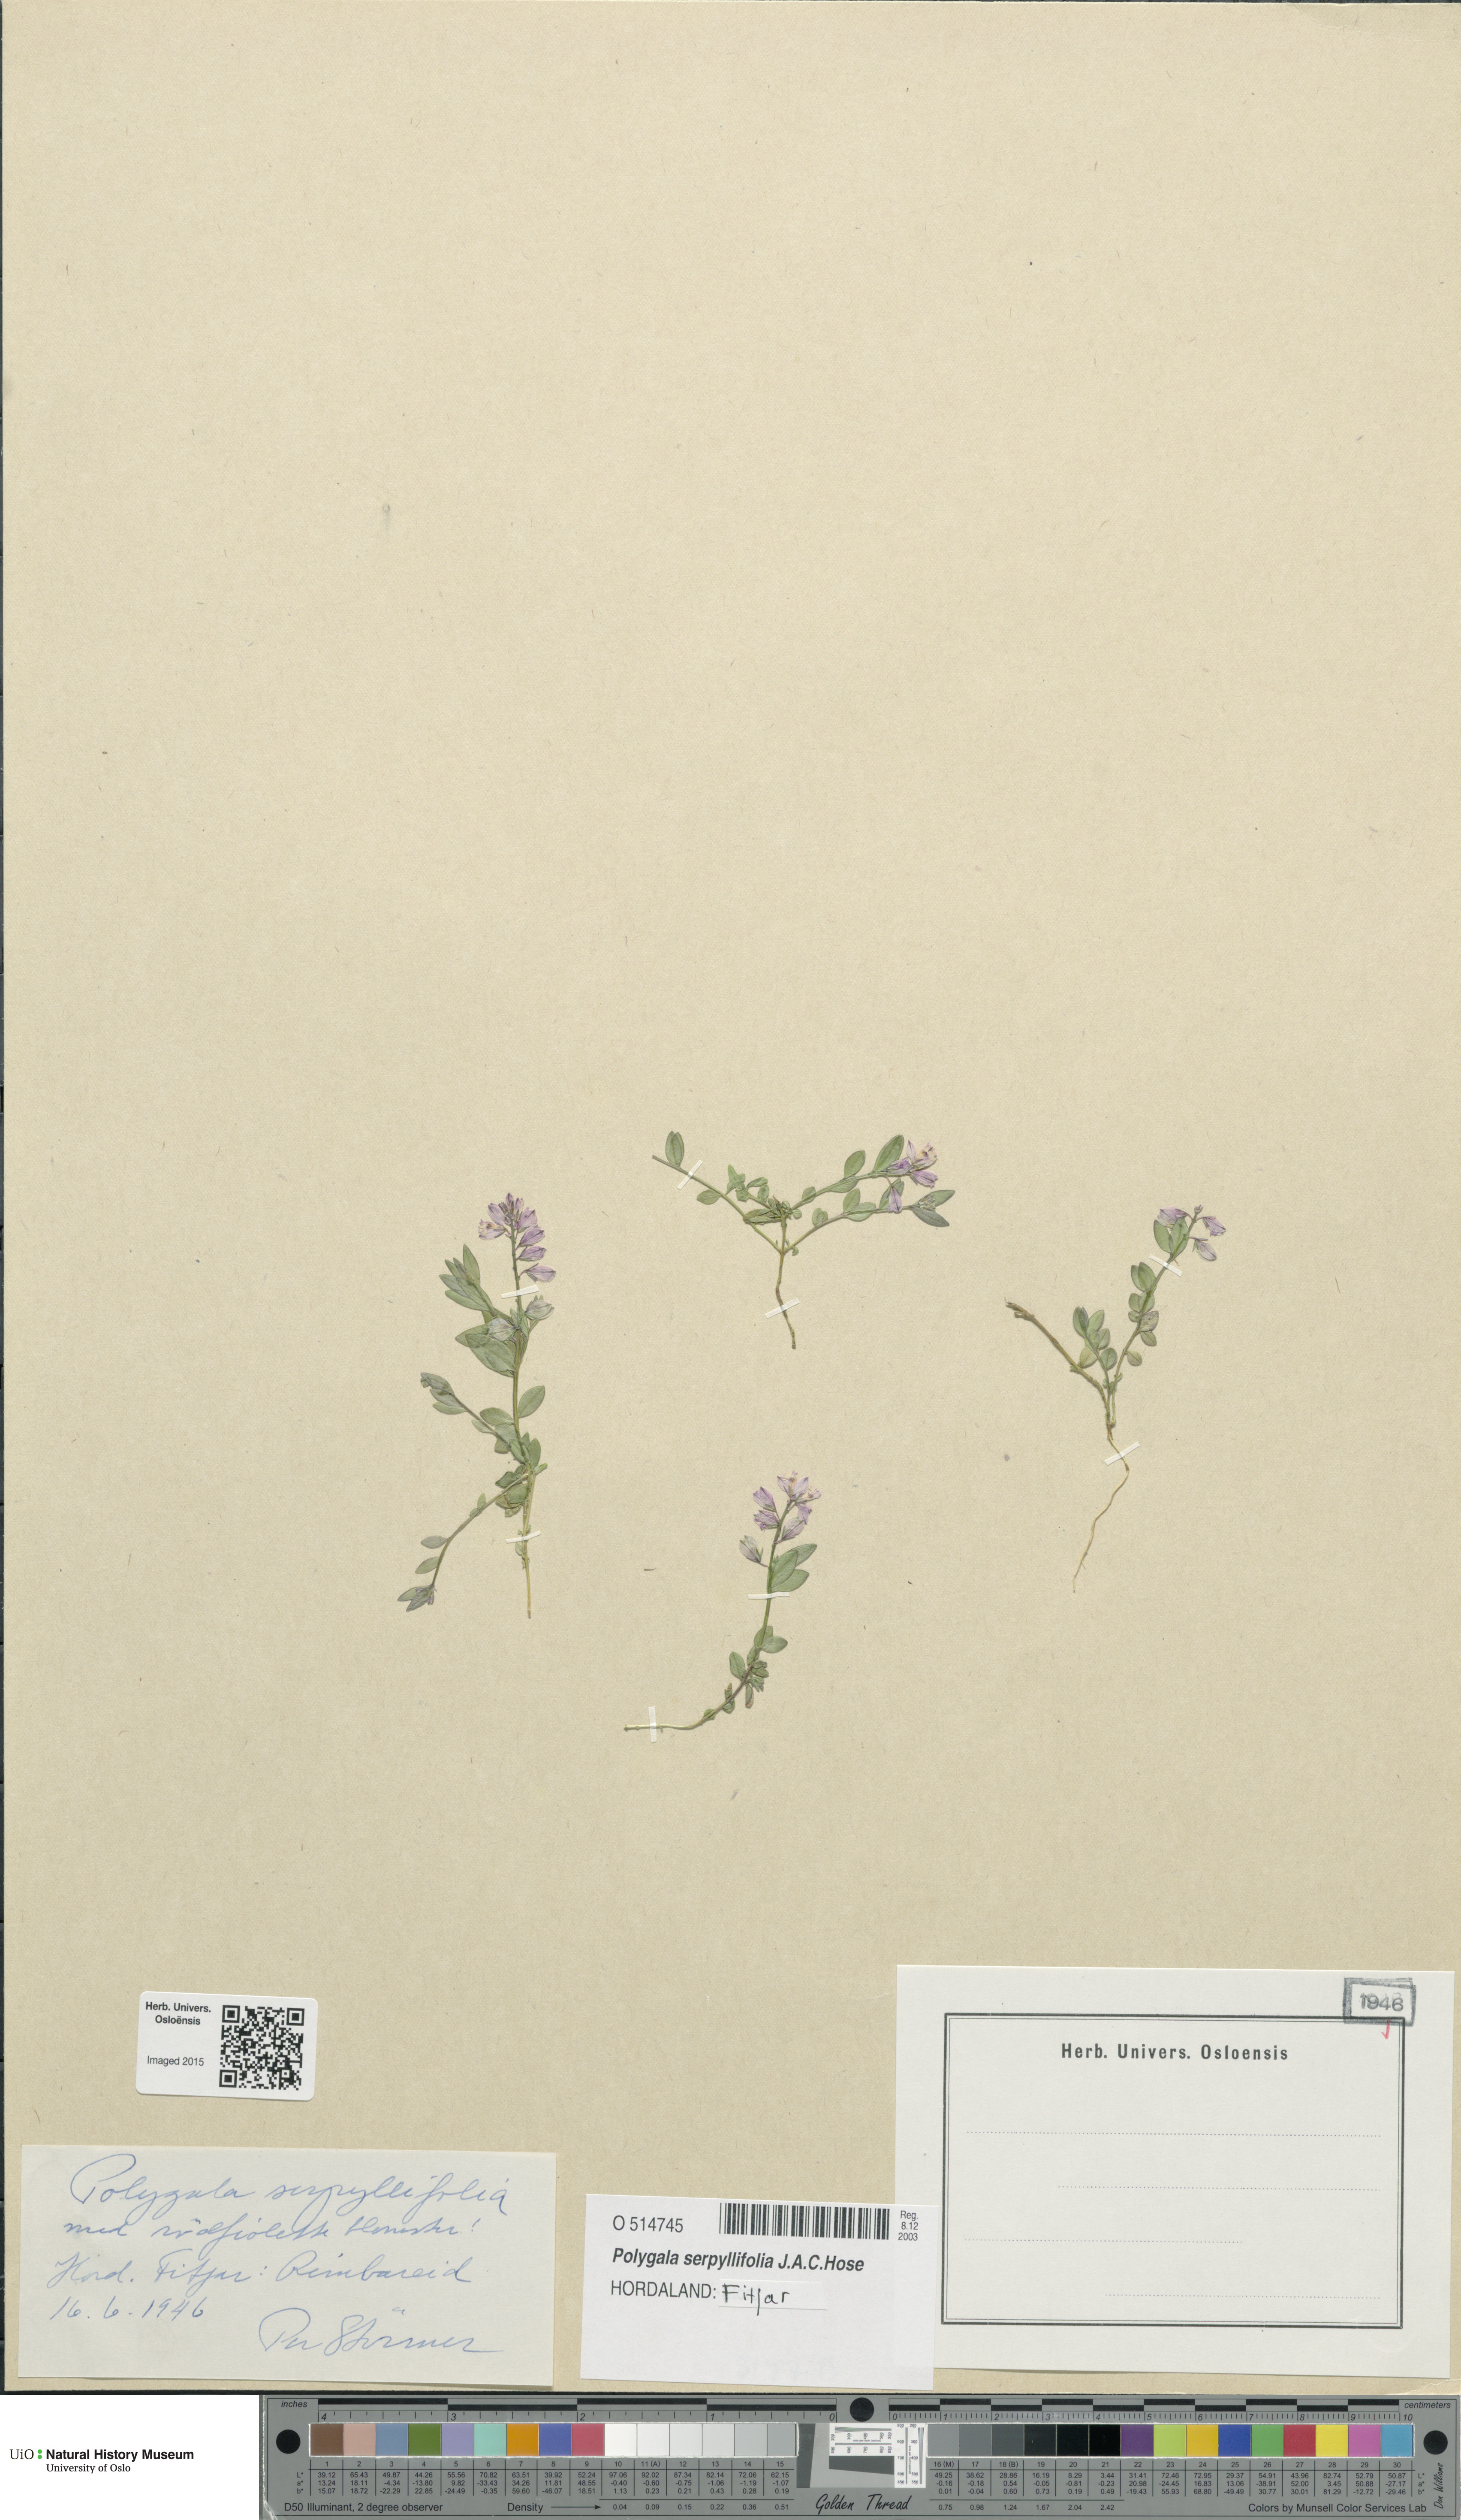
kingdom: Plantae
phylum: Tracheophyta
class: Magnoliopsida
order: Fabales
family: Polygalaceae
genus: Polygala
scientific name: Polygala serpyllifolia
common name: Heath milkwort
